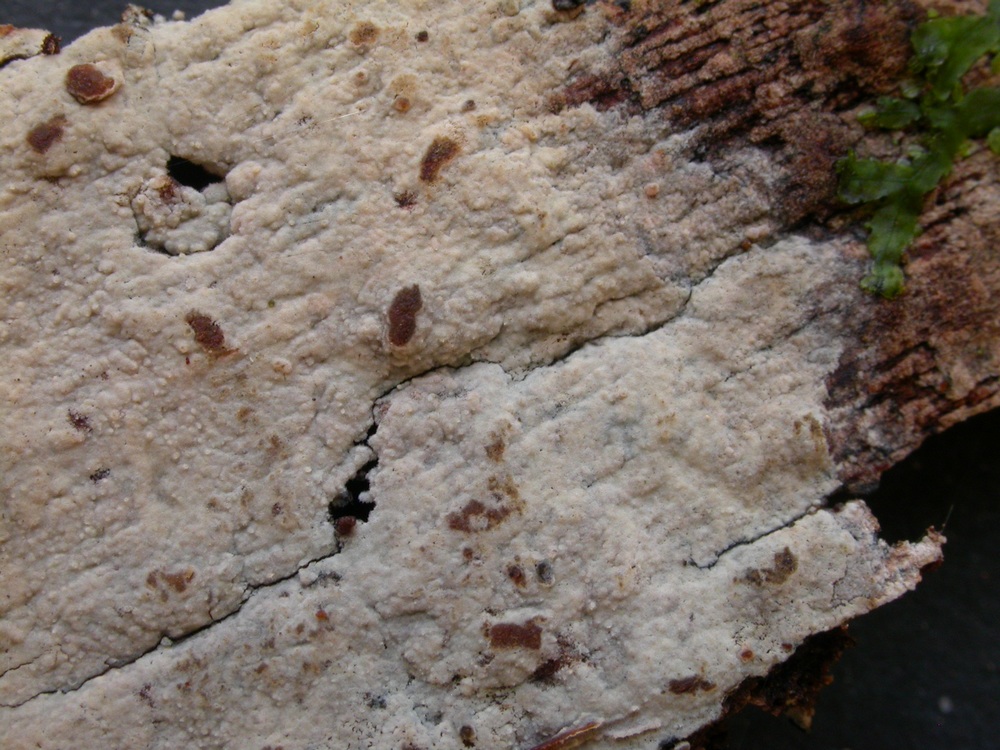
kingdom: Fungi
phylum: Basidiomycota
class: Agaricomycetes
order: Polyporales
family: Hyphodermataceae
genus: Kneiffia
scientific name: Kneiffia subalutacea
